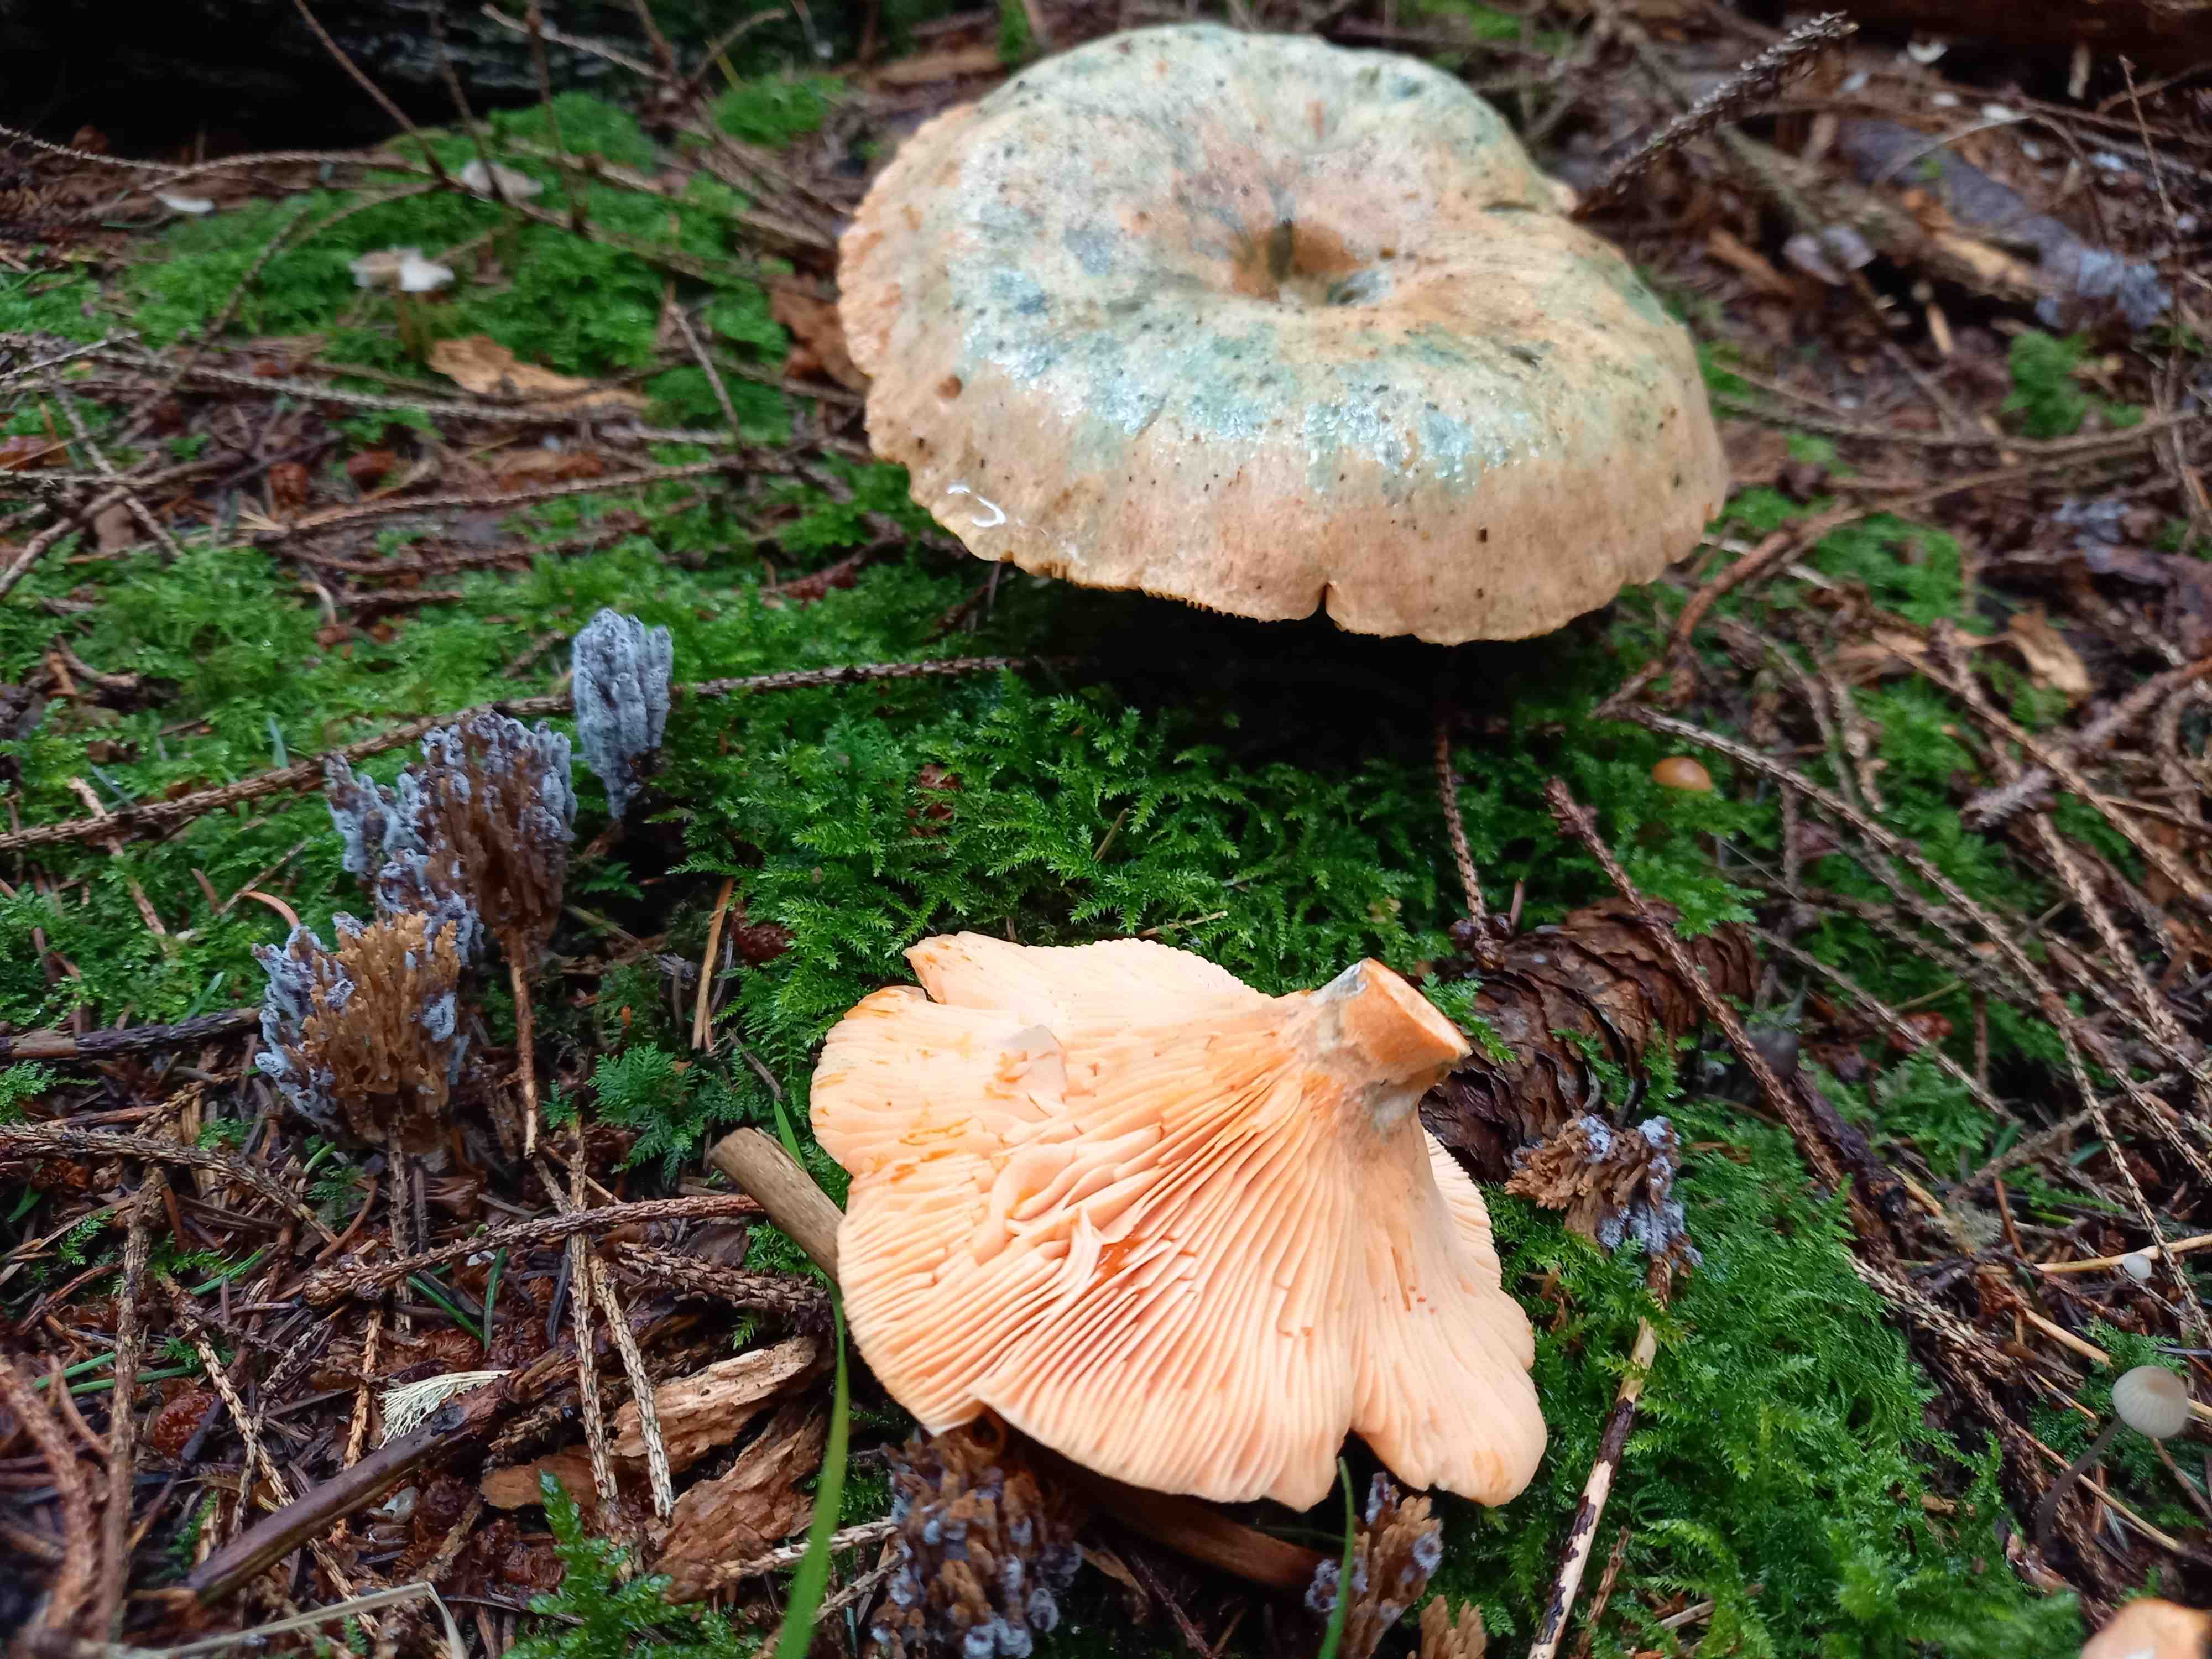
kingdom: Fungi
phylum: Basidiomycota
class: Agaricomycetes
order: Russulales
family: Russulaceae
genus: Lactarius
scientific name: Lactarius deterrimus
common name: gran-mælkehat
